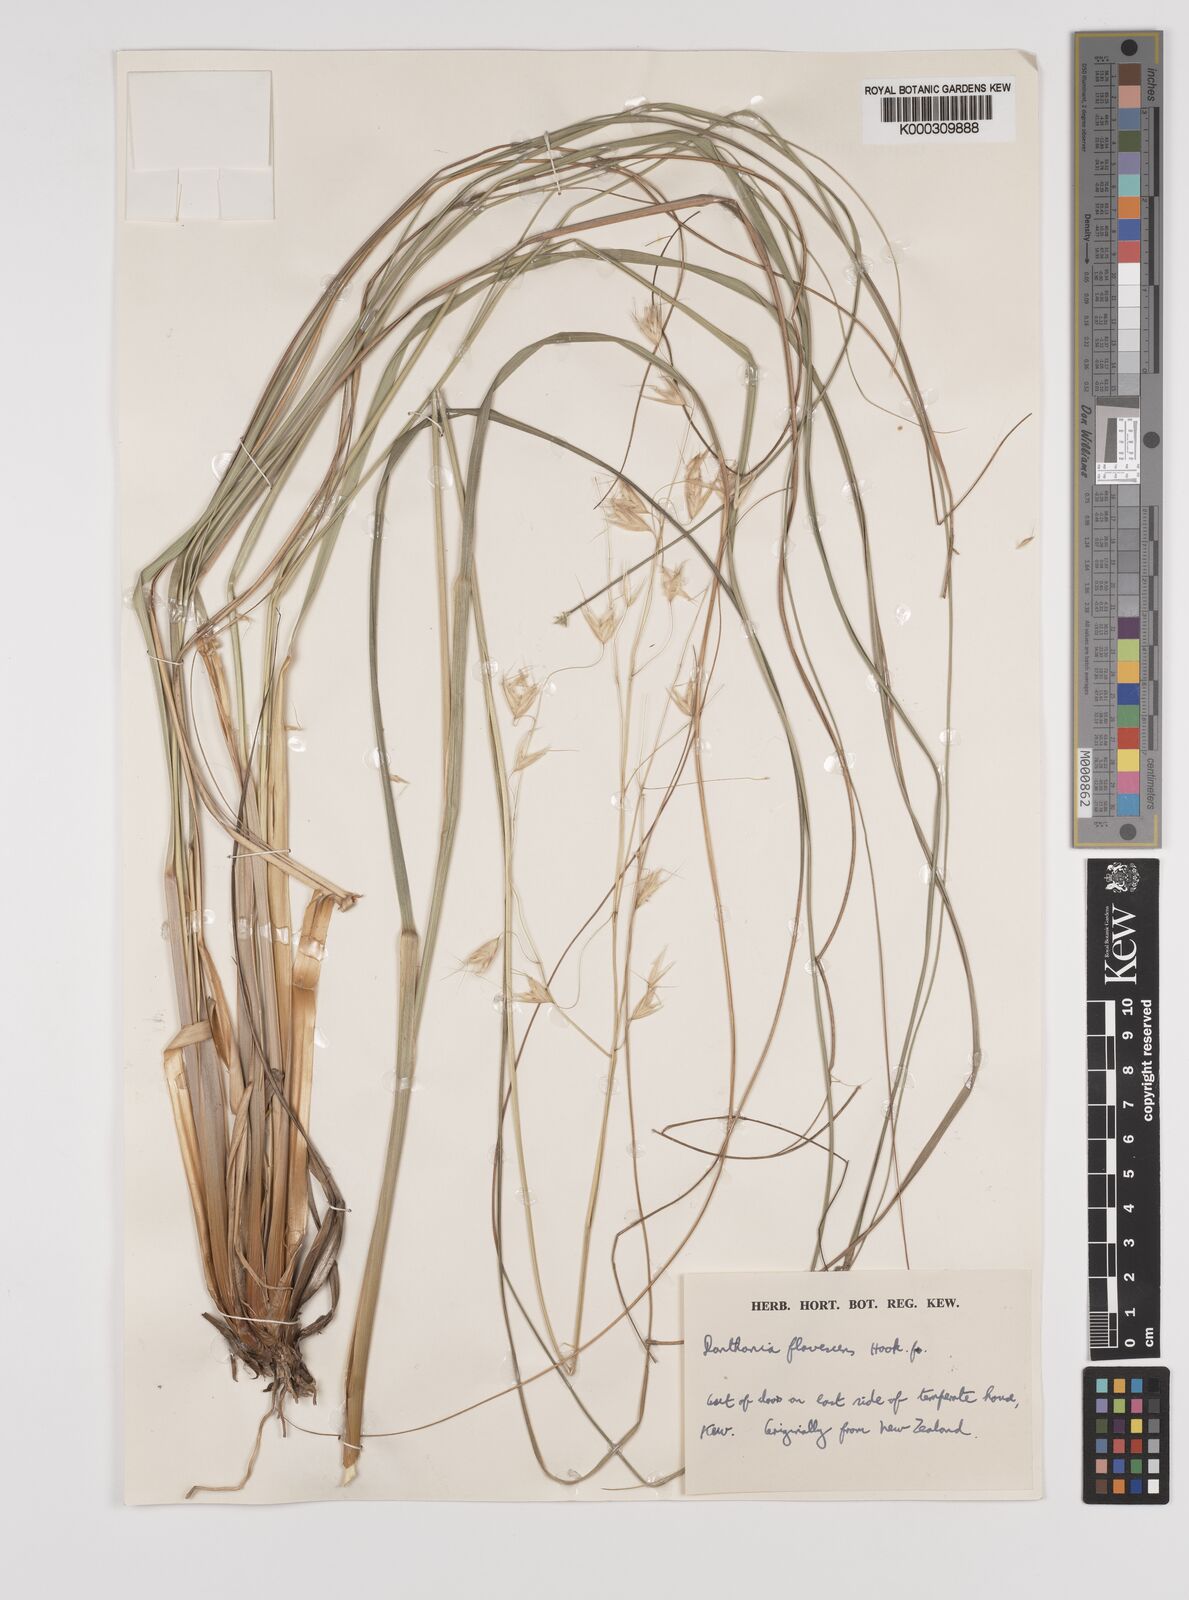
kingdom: Plantae
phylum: Tracheophyta
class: Liliopsida
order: Poales
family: Poaceae
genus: Chionochloa
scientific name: Chionochloa rigida
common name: Narrow leaved snow tussock
